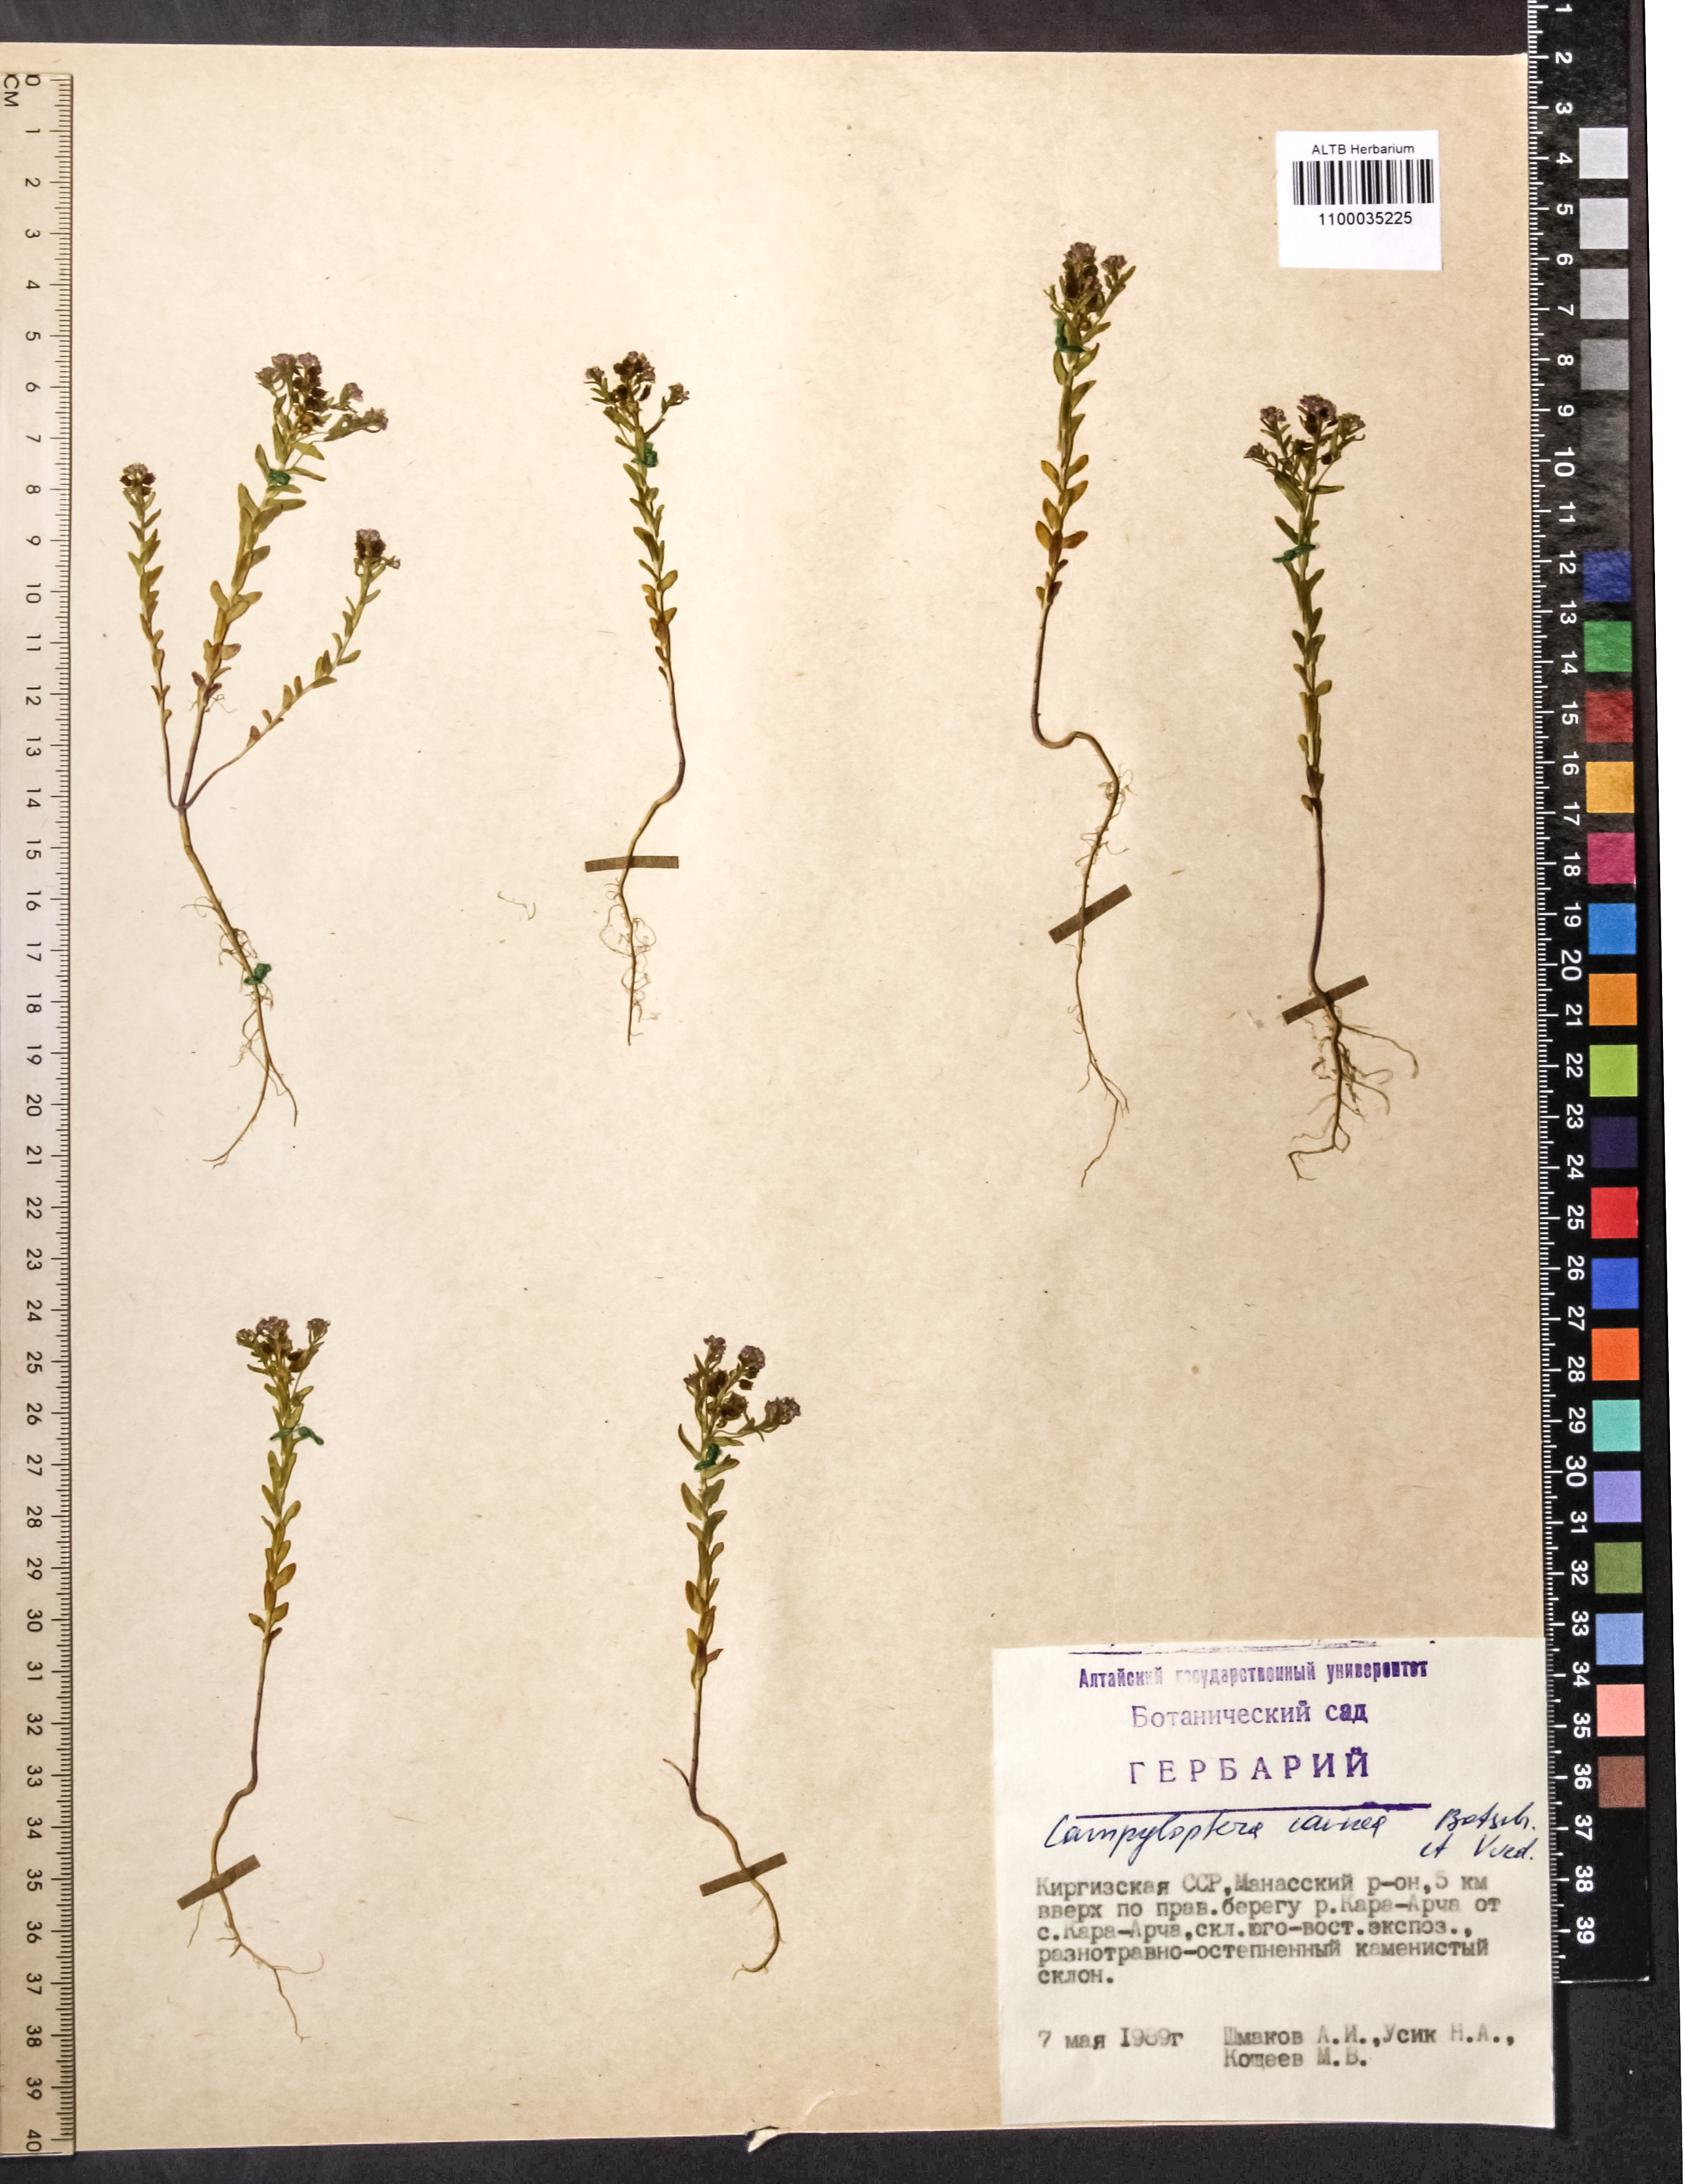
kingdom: Plantae
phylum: Tracheophyta
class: Magnoliopsida
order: Brassicales
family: Brassicaceae
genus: Aethionema
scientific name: Aethionema carneum
